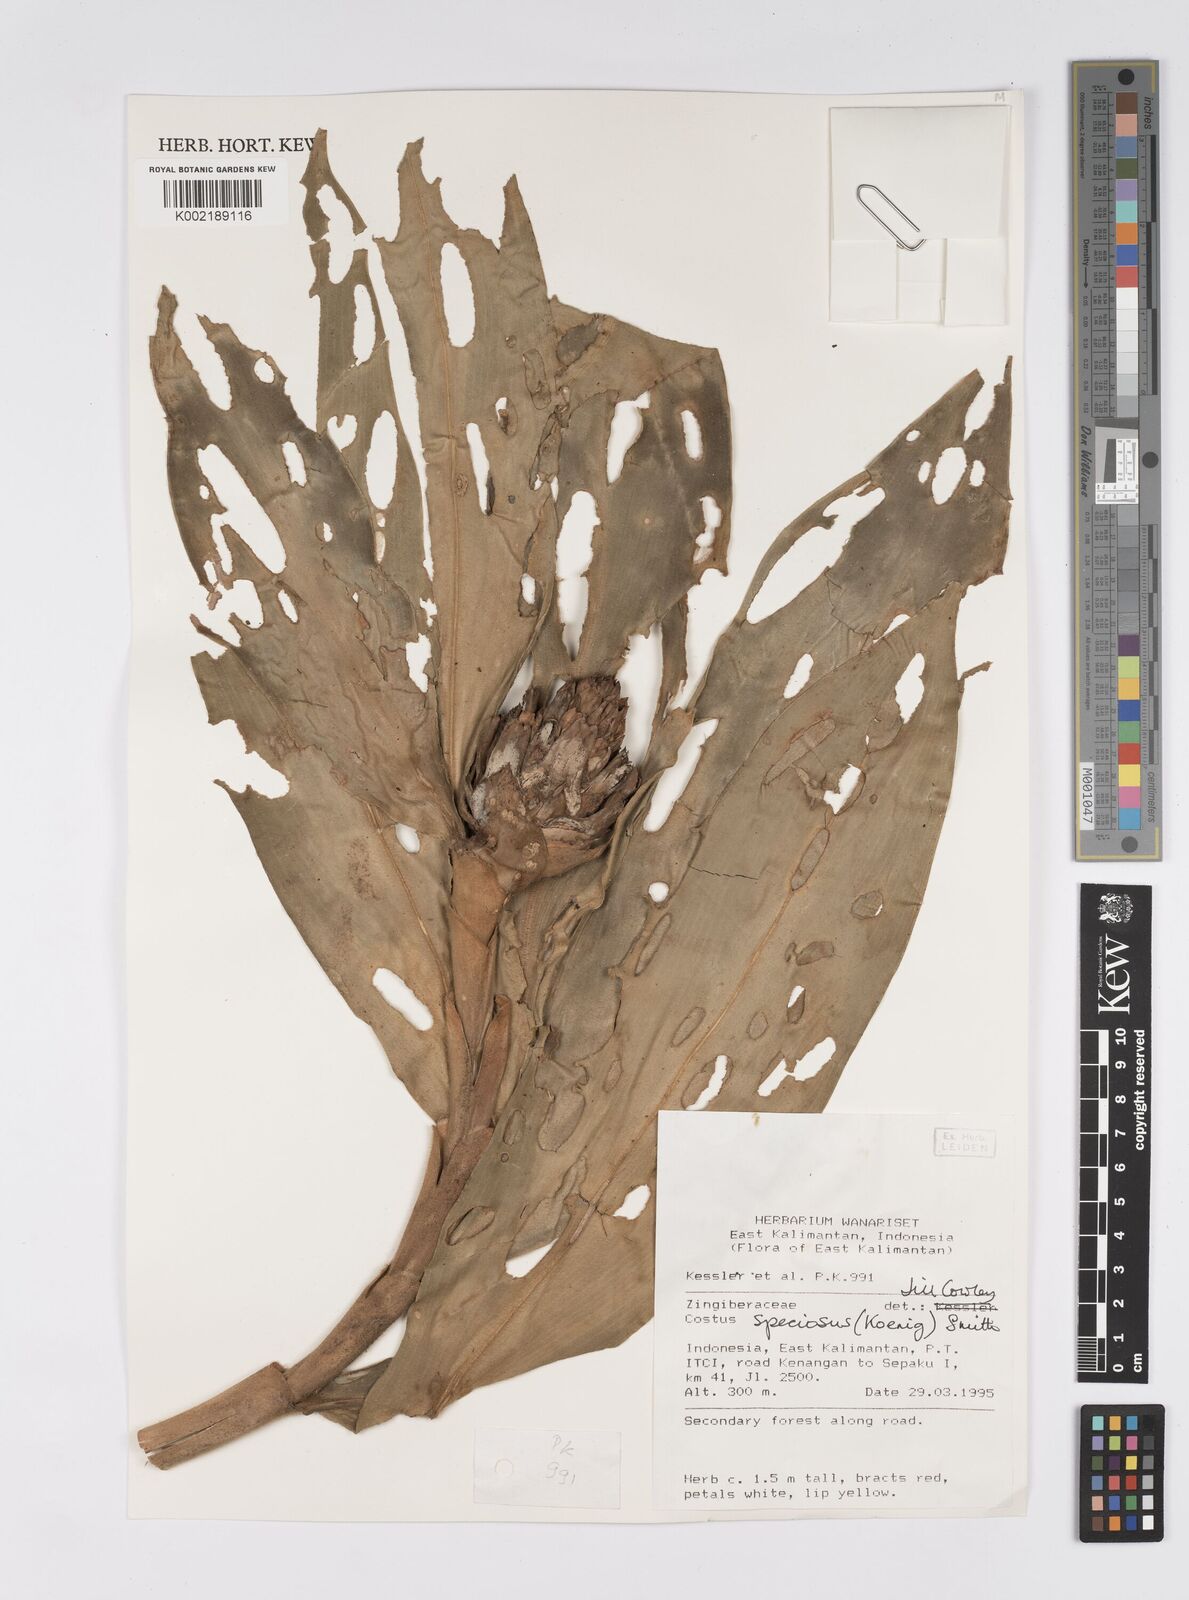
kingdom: Plantae
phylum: Tracheophyta
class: Liliopsida
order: Zingiberales
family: Costaceae
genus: Hellenia
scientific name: Hellenia speciosa
